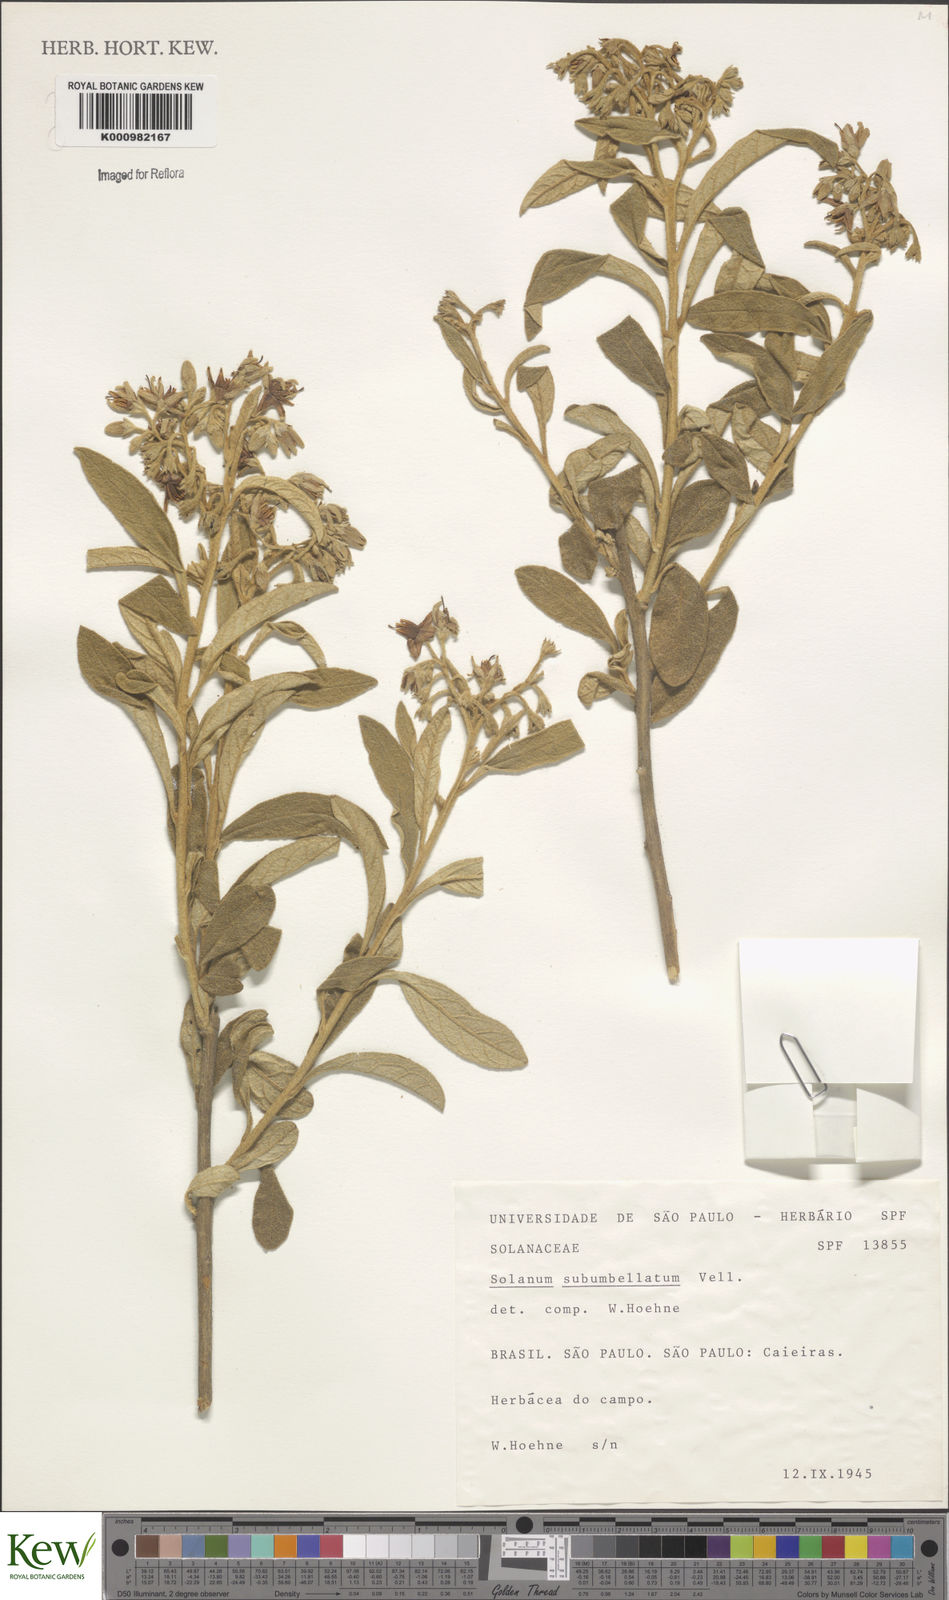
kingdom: Plantae
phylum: Tracheophyta
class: Magnoliopsida
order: Solanales
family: Solanaceae
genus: Solanum
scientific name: Solanum subumbellatum
